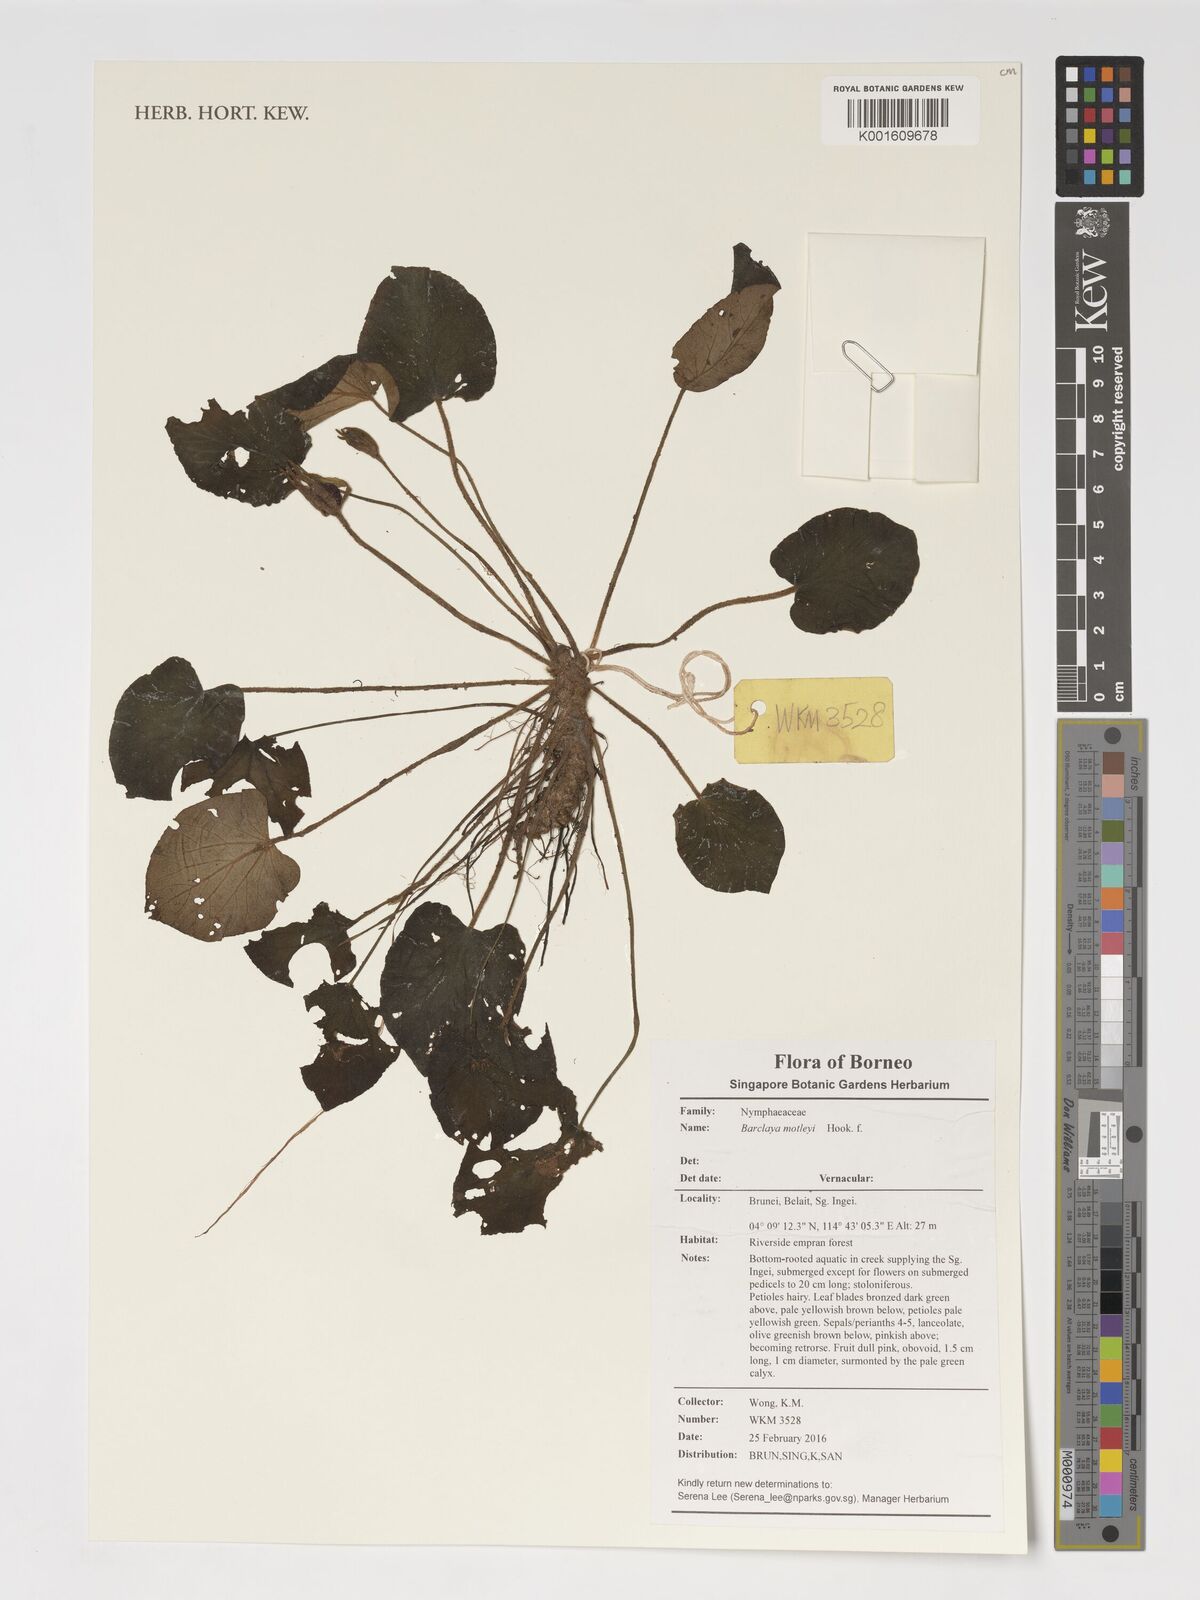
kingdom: Plantae
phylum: Tracheophyta
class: Magnoliopsida
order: Nymphaeales
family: Nymphaeaceae
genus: Barclaya
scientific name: Barclaya motleyi
